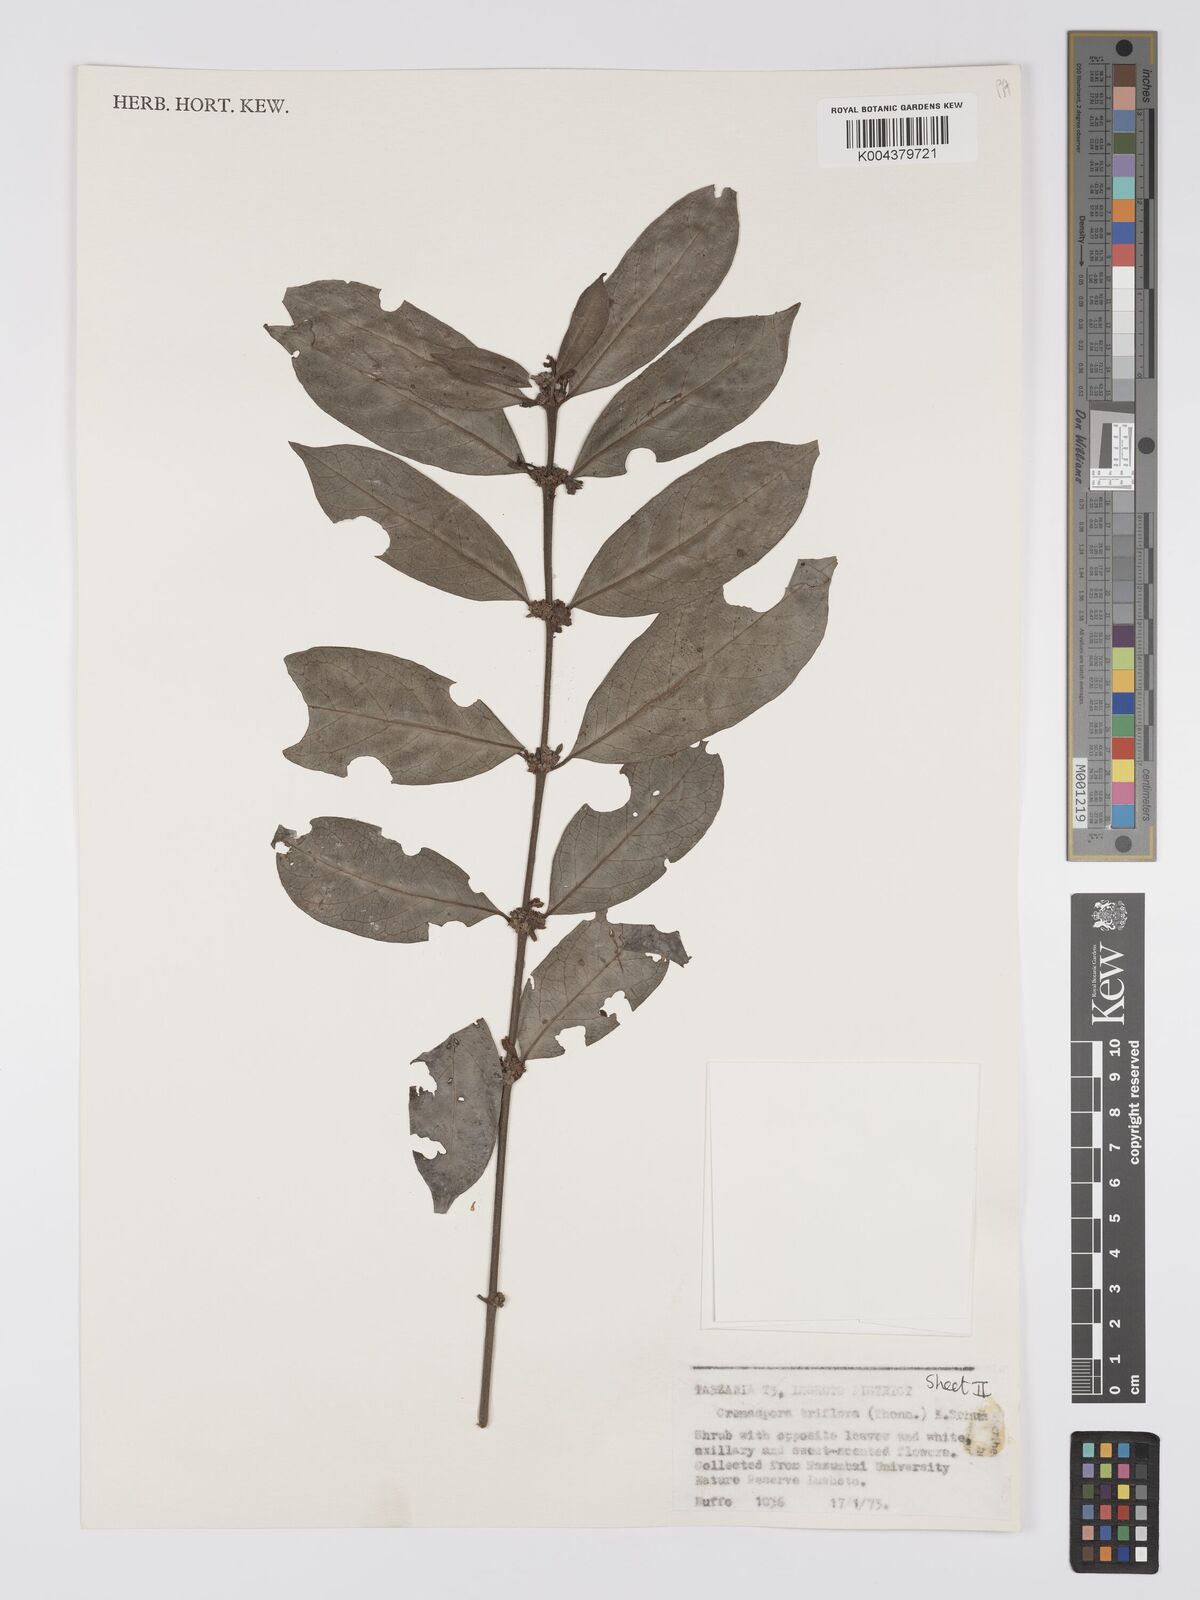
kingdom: Plantae
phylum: Tracheophyta
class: Magnoliopsida
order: Gentianales
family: Rubiaceae
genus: Cremaspora
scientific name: Cremaspora triflora
